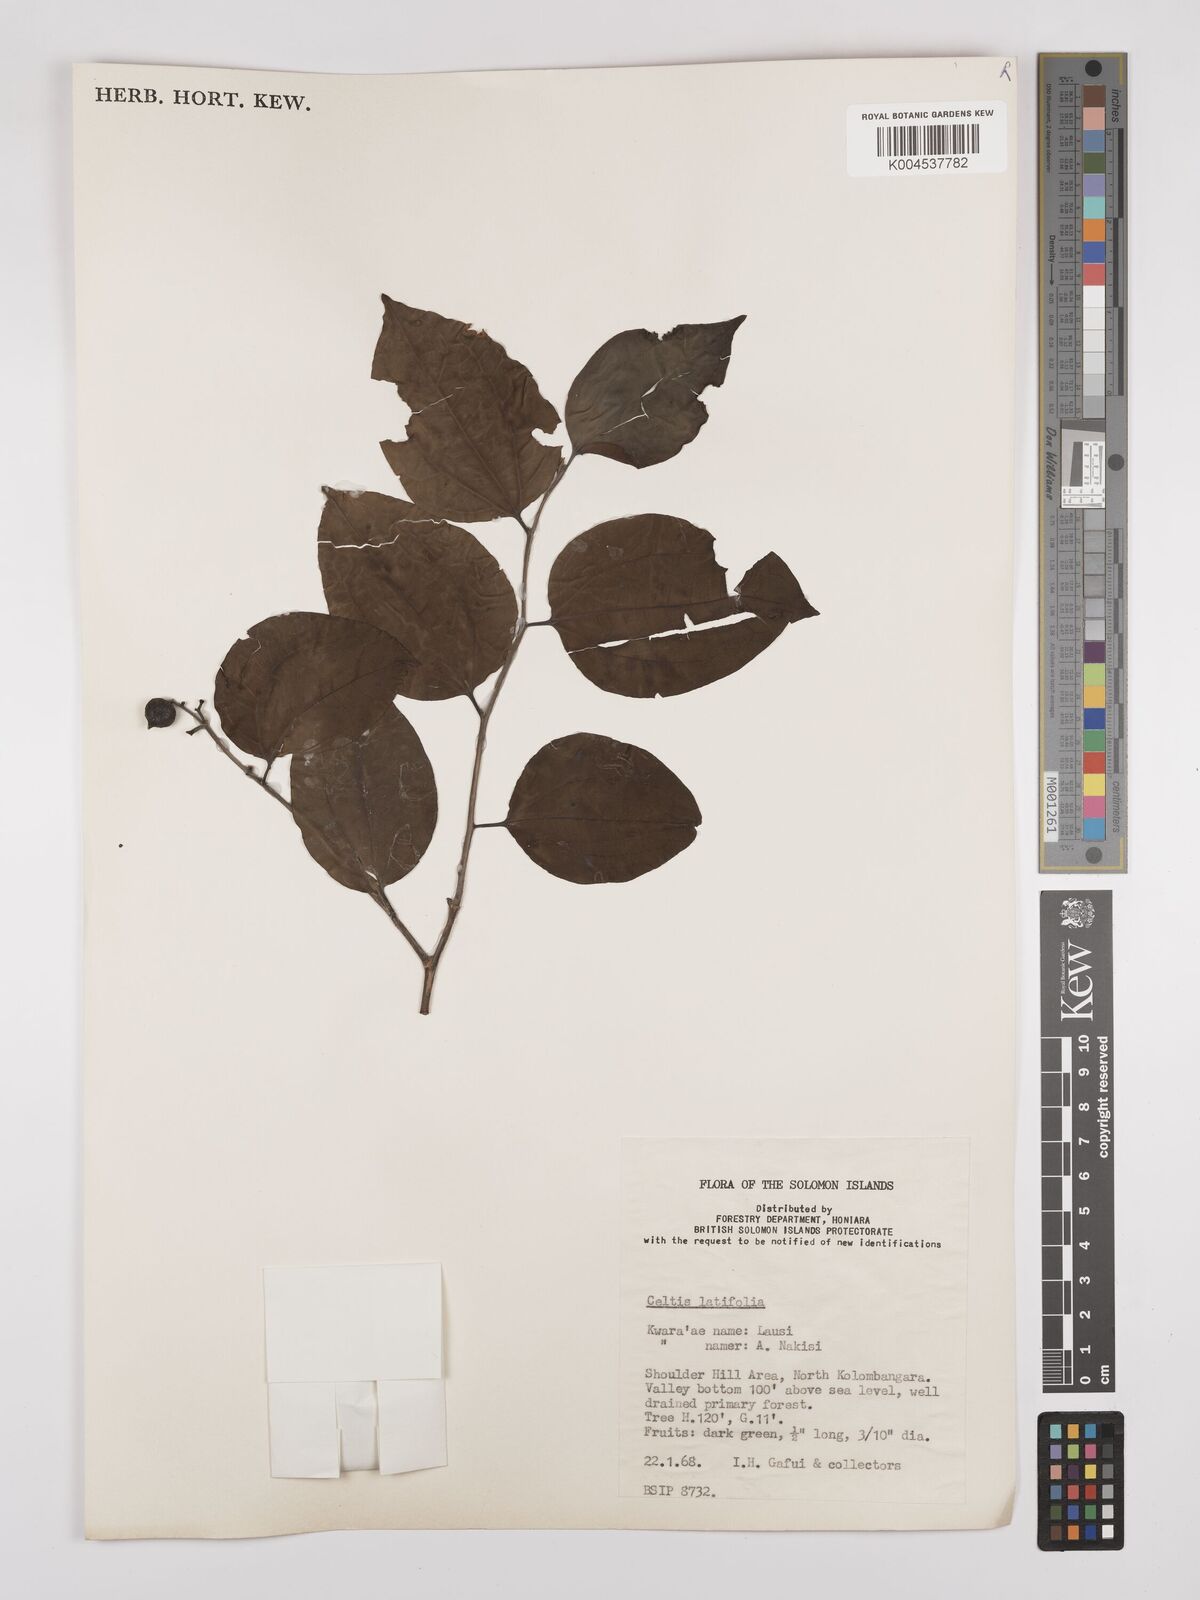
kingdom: Plantae
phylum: Tracheophyta
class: Magnoliopsida
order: Rosales
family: Cannabaceae
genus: Celtis
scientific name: Celtis latifolia
